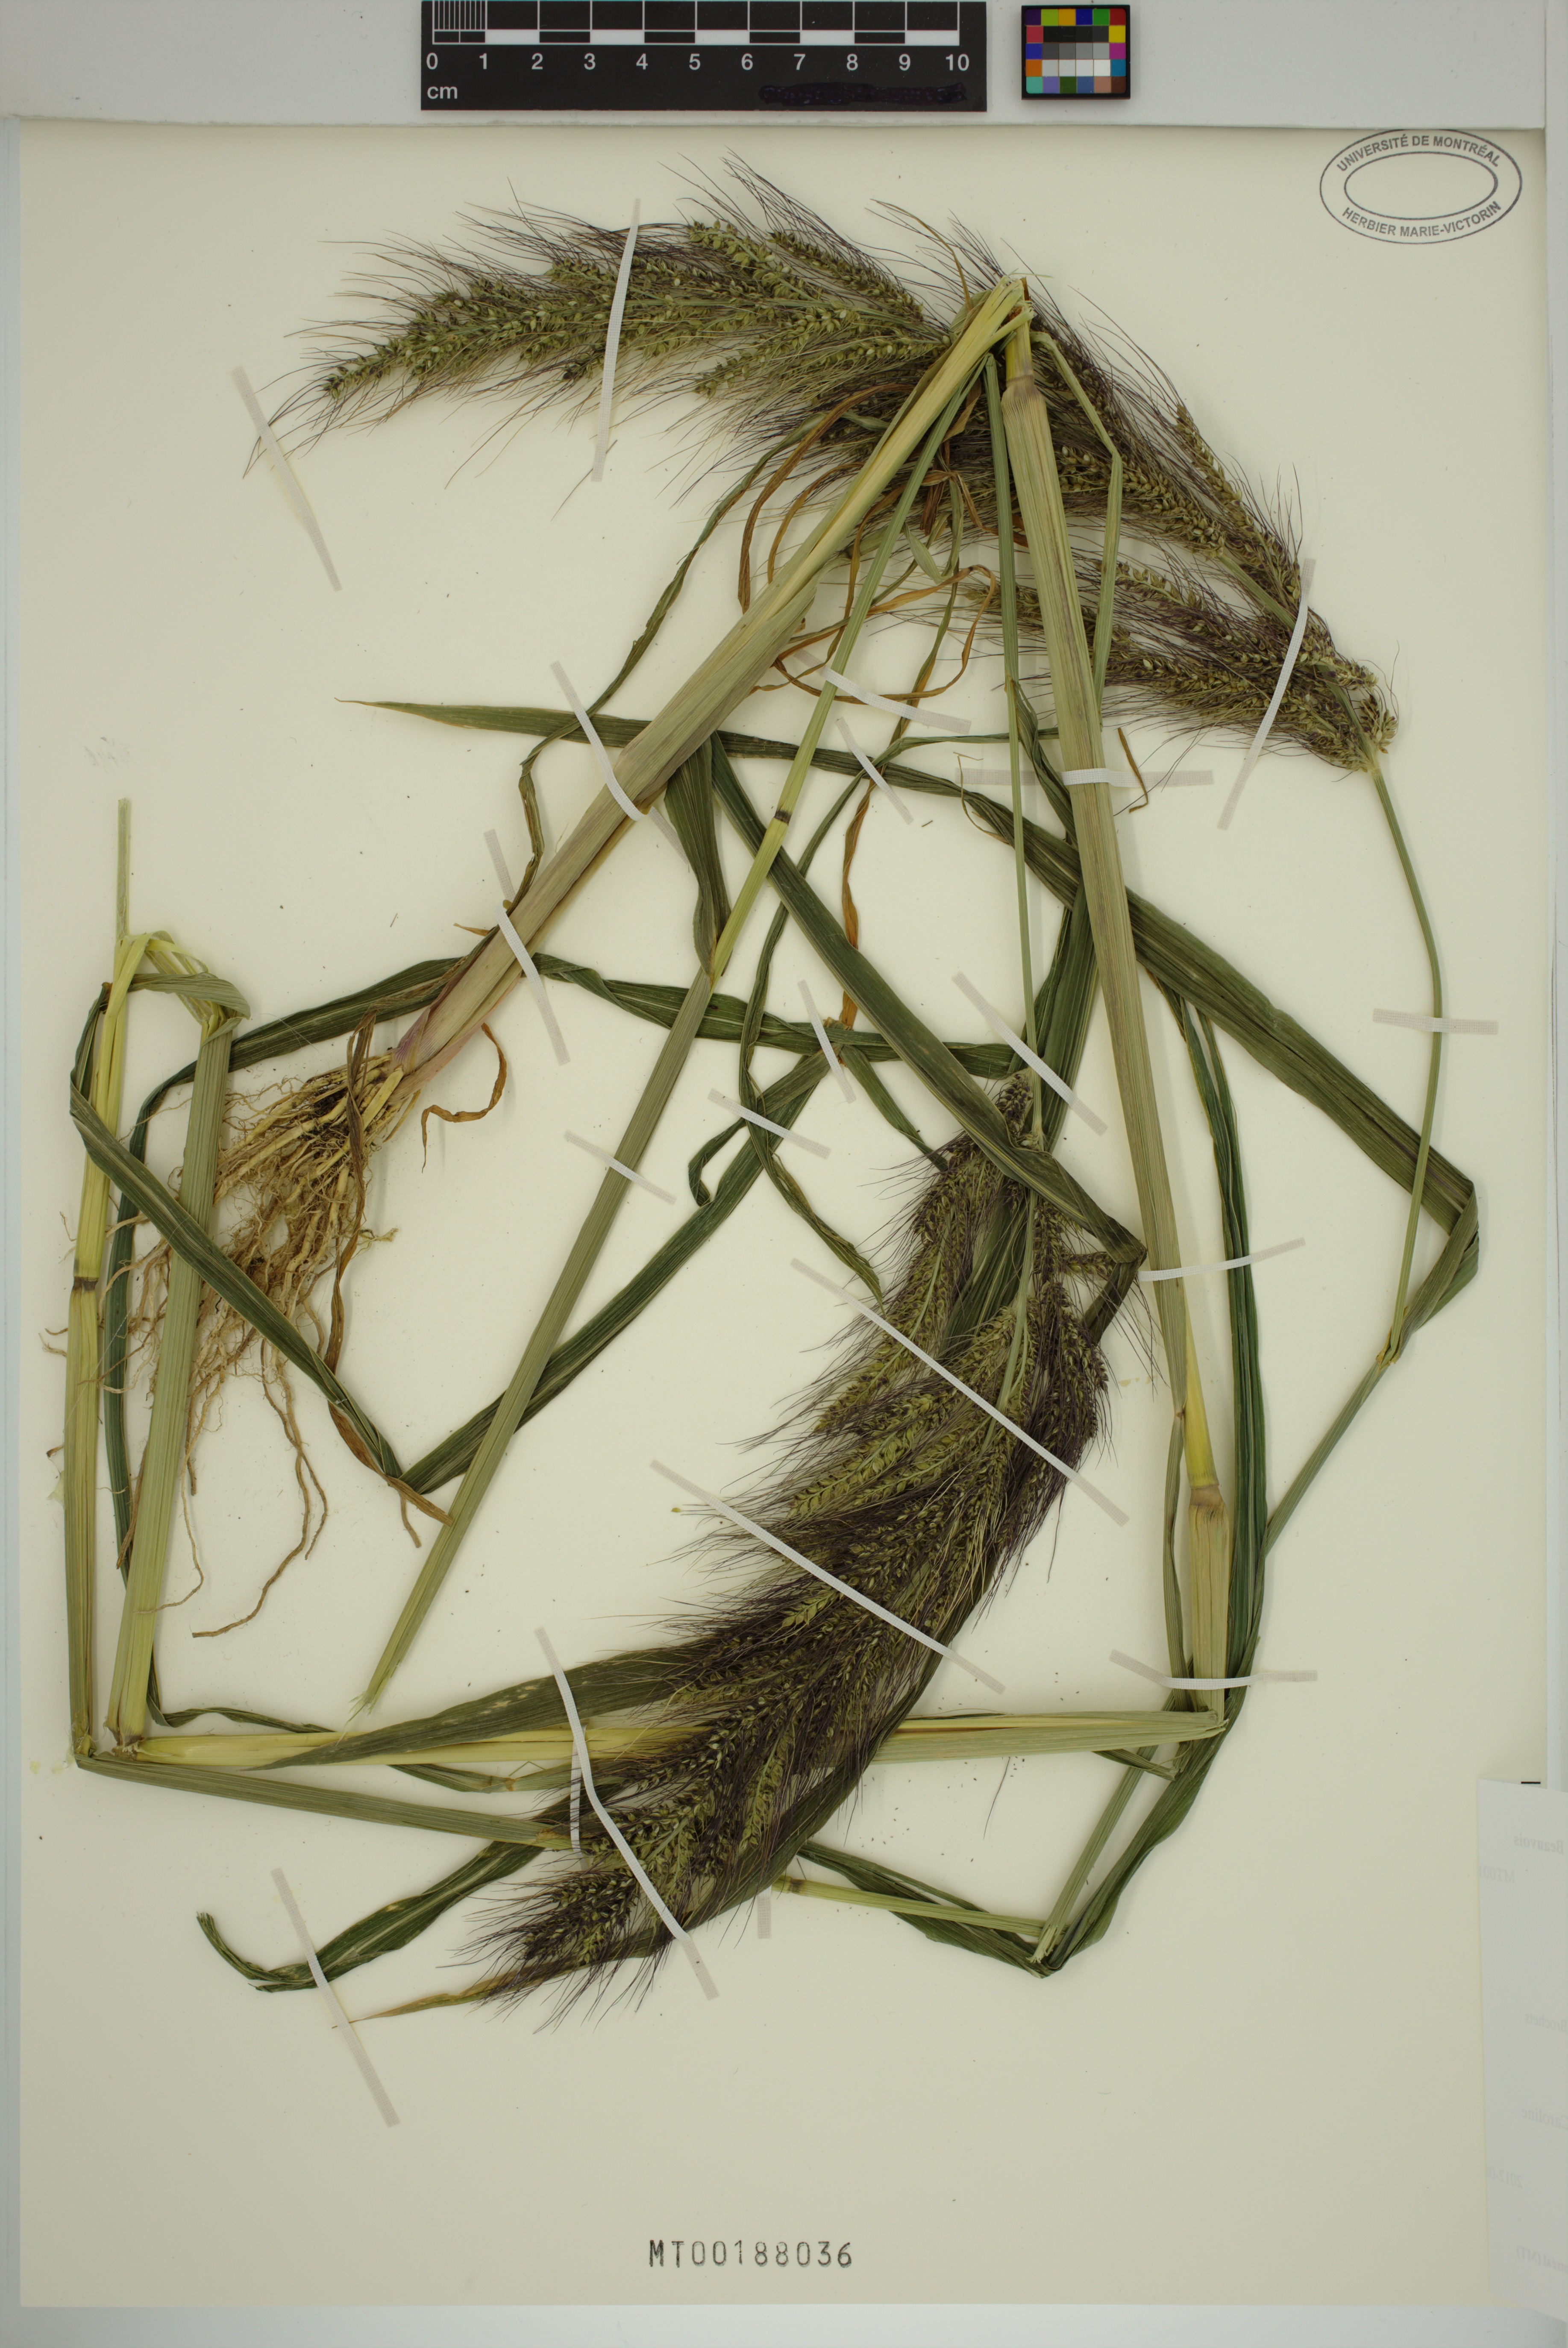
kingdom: Plantae
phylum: Tracheophyta
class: Liliopsida
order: Poales
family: Poaceae
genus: Echinochloa
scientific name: Echinochloa crus-galli
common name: Cockspur
